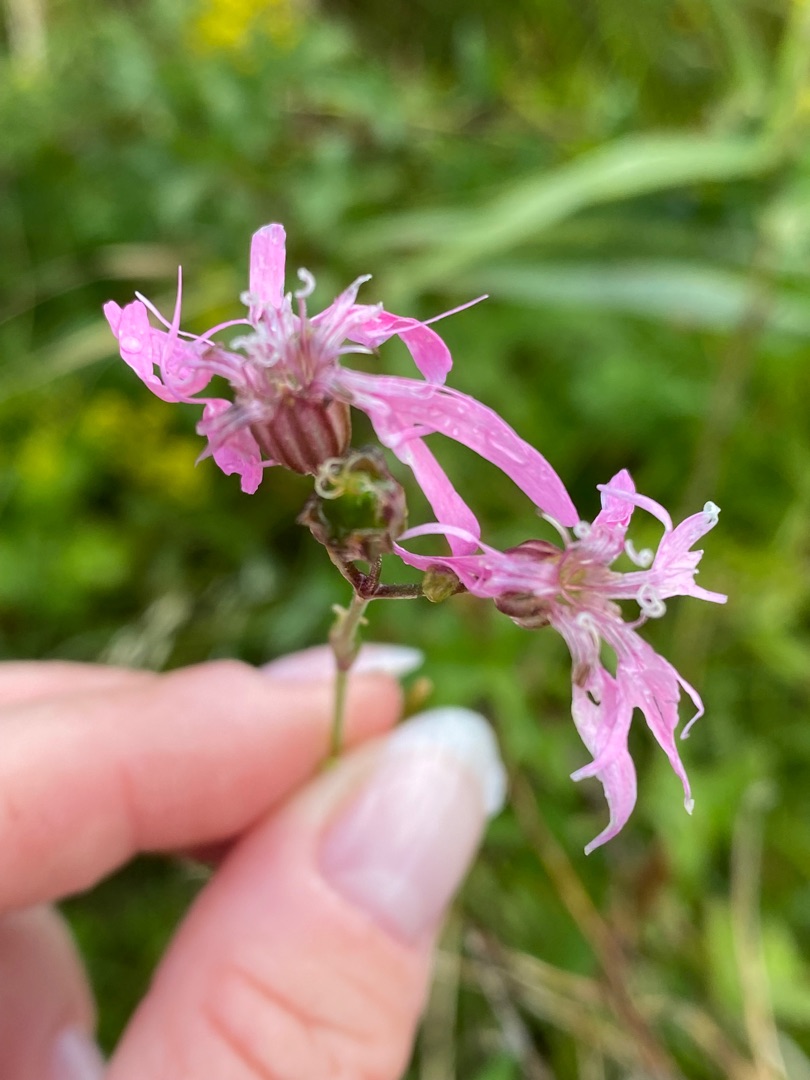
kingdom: Plantae
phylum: Tracheophyta
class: Magnoliopsida
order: Caryophyllales
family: Caryophyllaceae
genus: Silene
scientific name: Silene flos-cuculi
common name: Trævlekrone
